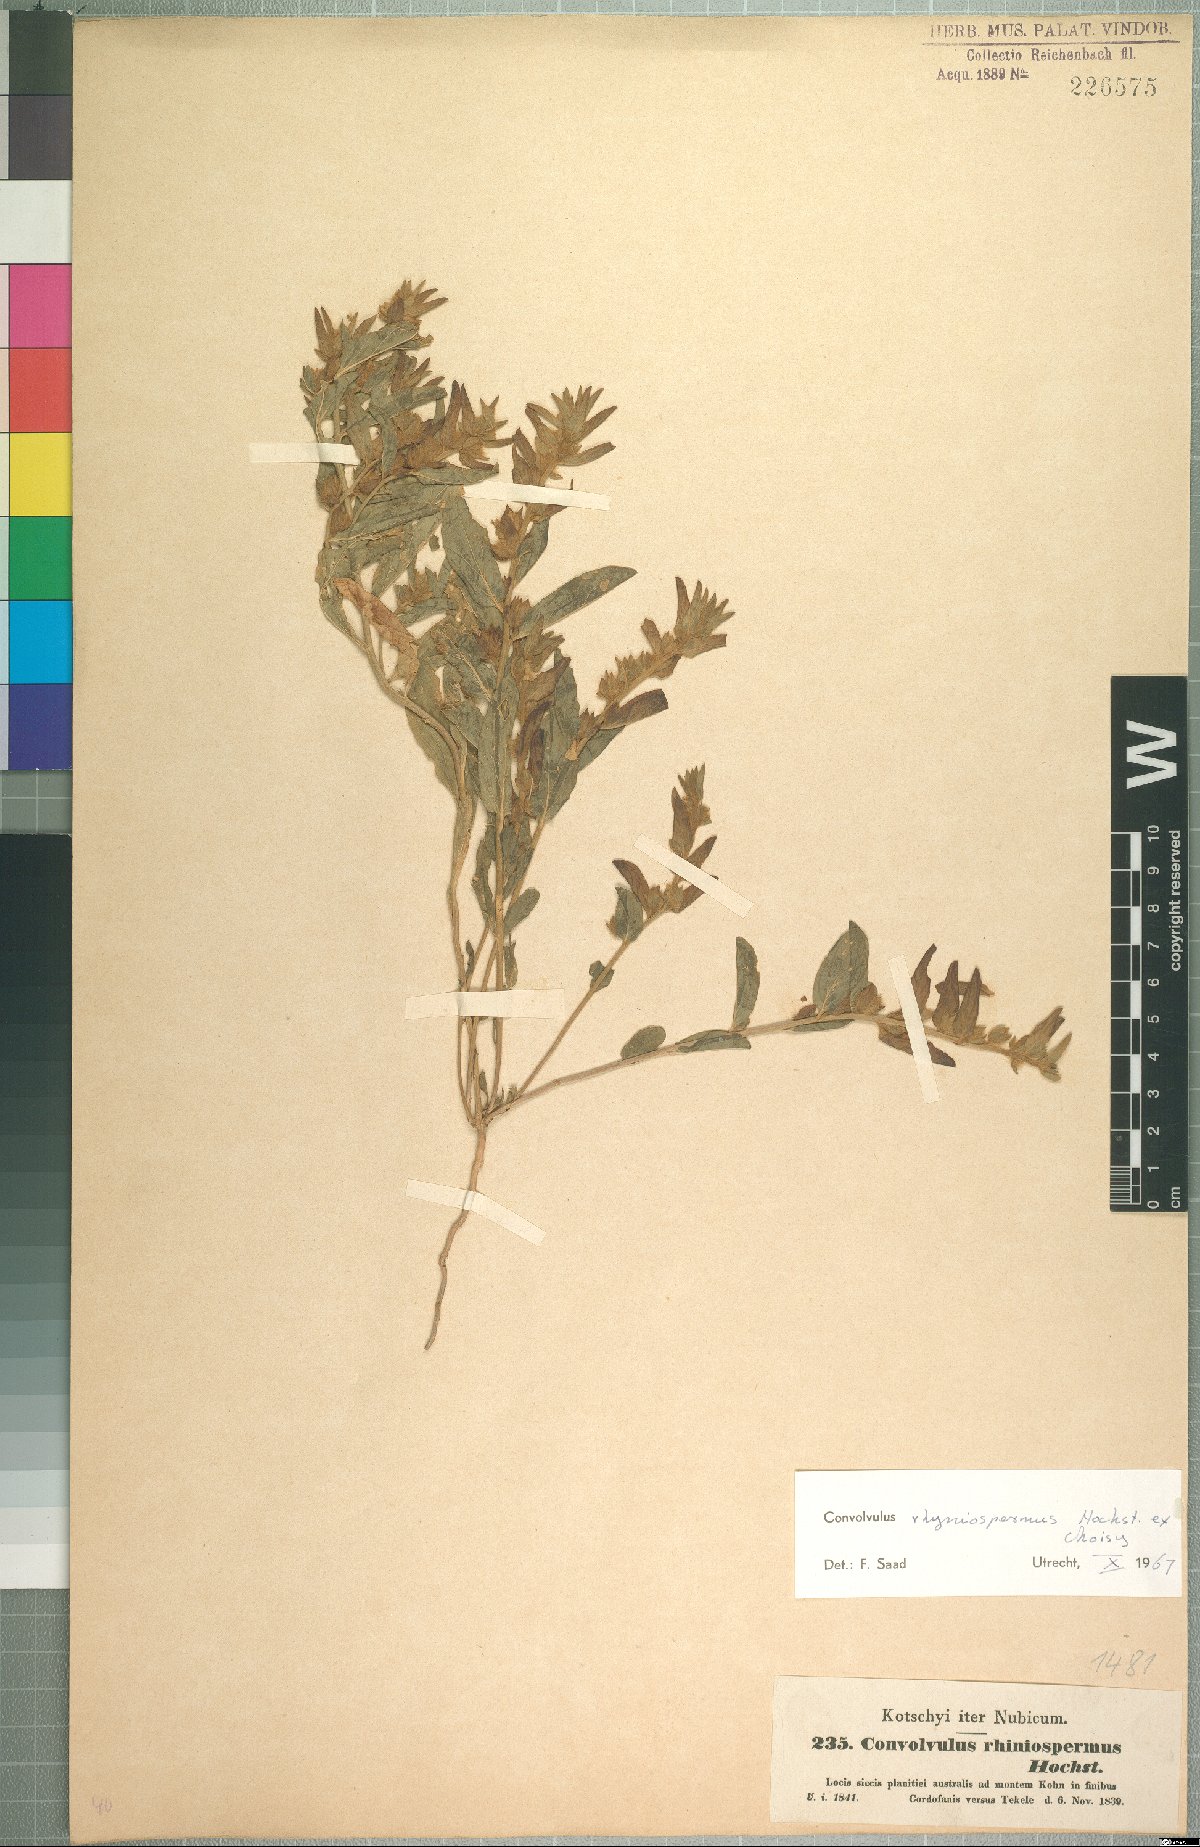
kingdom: Plantae
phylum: Tracheophyta
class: Magnoliopsida
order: Solanales
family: Convolvulaceae
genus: Convolvulus
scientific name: Convolvulus rhyniospermus
